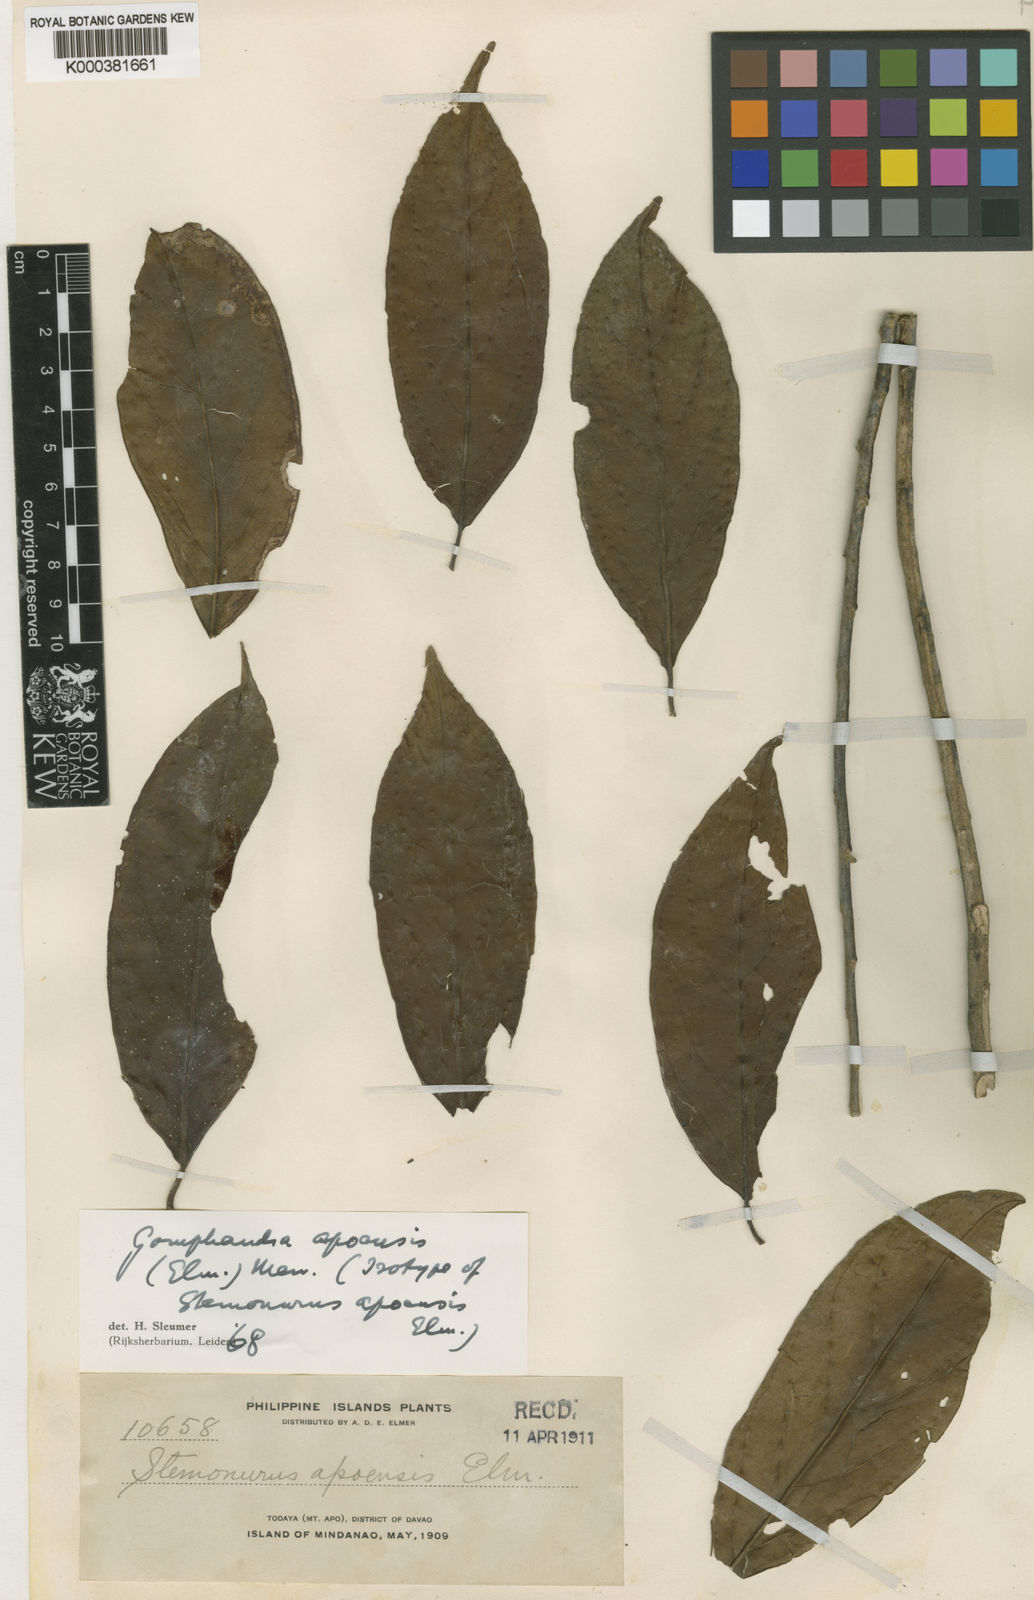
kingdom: Plantae
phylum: Tracheophyta
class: Magnoliopsida
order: Cardiopteridales
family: Stemonuraceae
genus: Gomphandra
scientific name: Gomphandra mappioides
